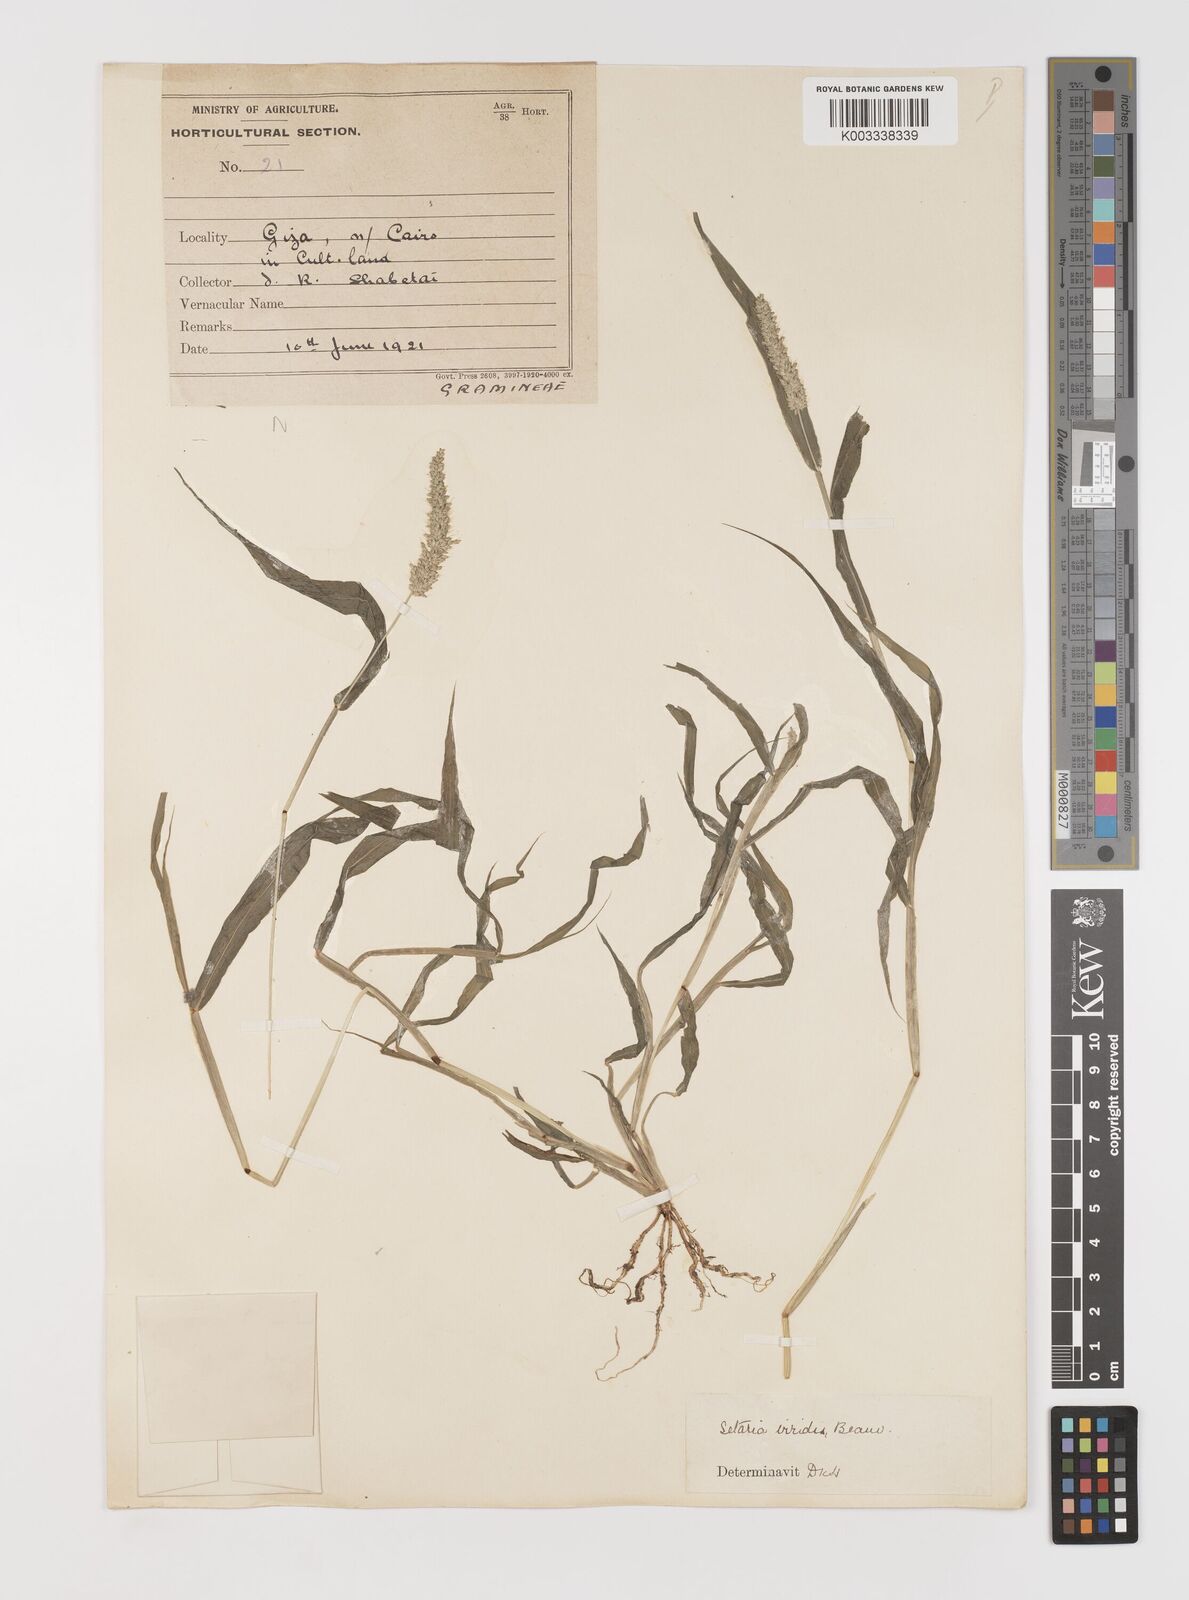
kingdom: Plantae
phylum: Tracheophyta
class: Liliopsida
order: Poales
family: Poaceae
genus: Setaria
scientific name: Setaria verticillata
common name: Hooked bristlegrass
